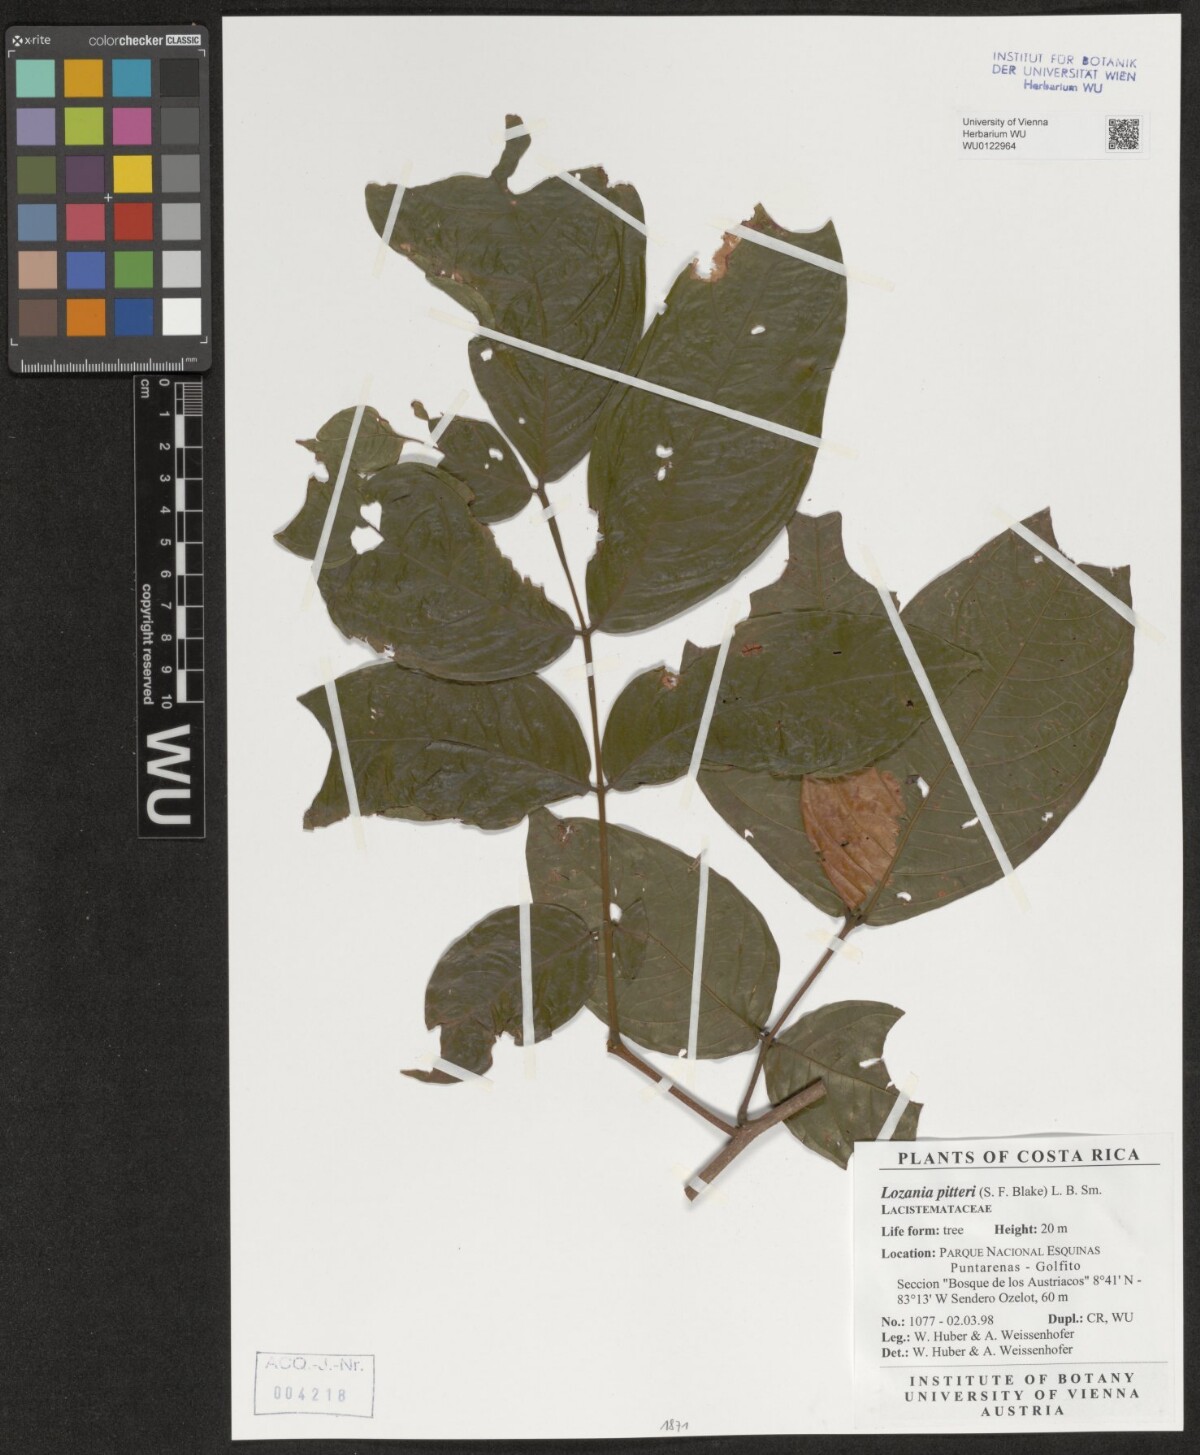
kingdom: Plantae
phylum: Tracheophyta
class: Magnoliopsida
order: Malpighiales
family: Lacistemataceae
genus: Lozania
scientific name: Lozania pittieri
